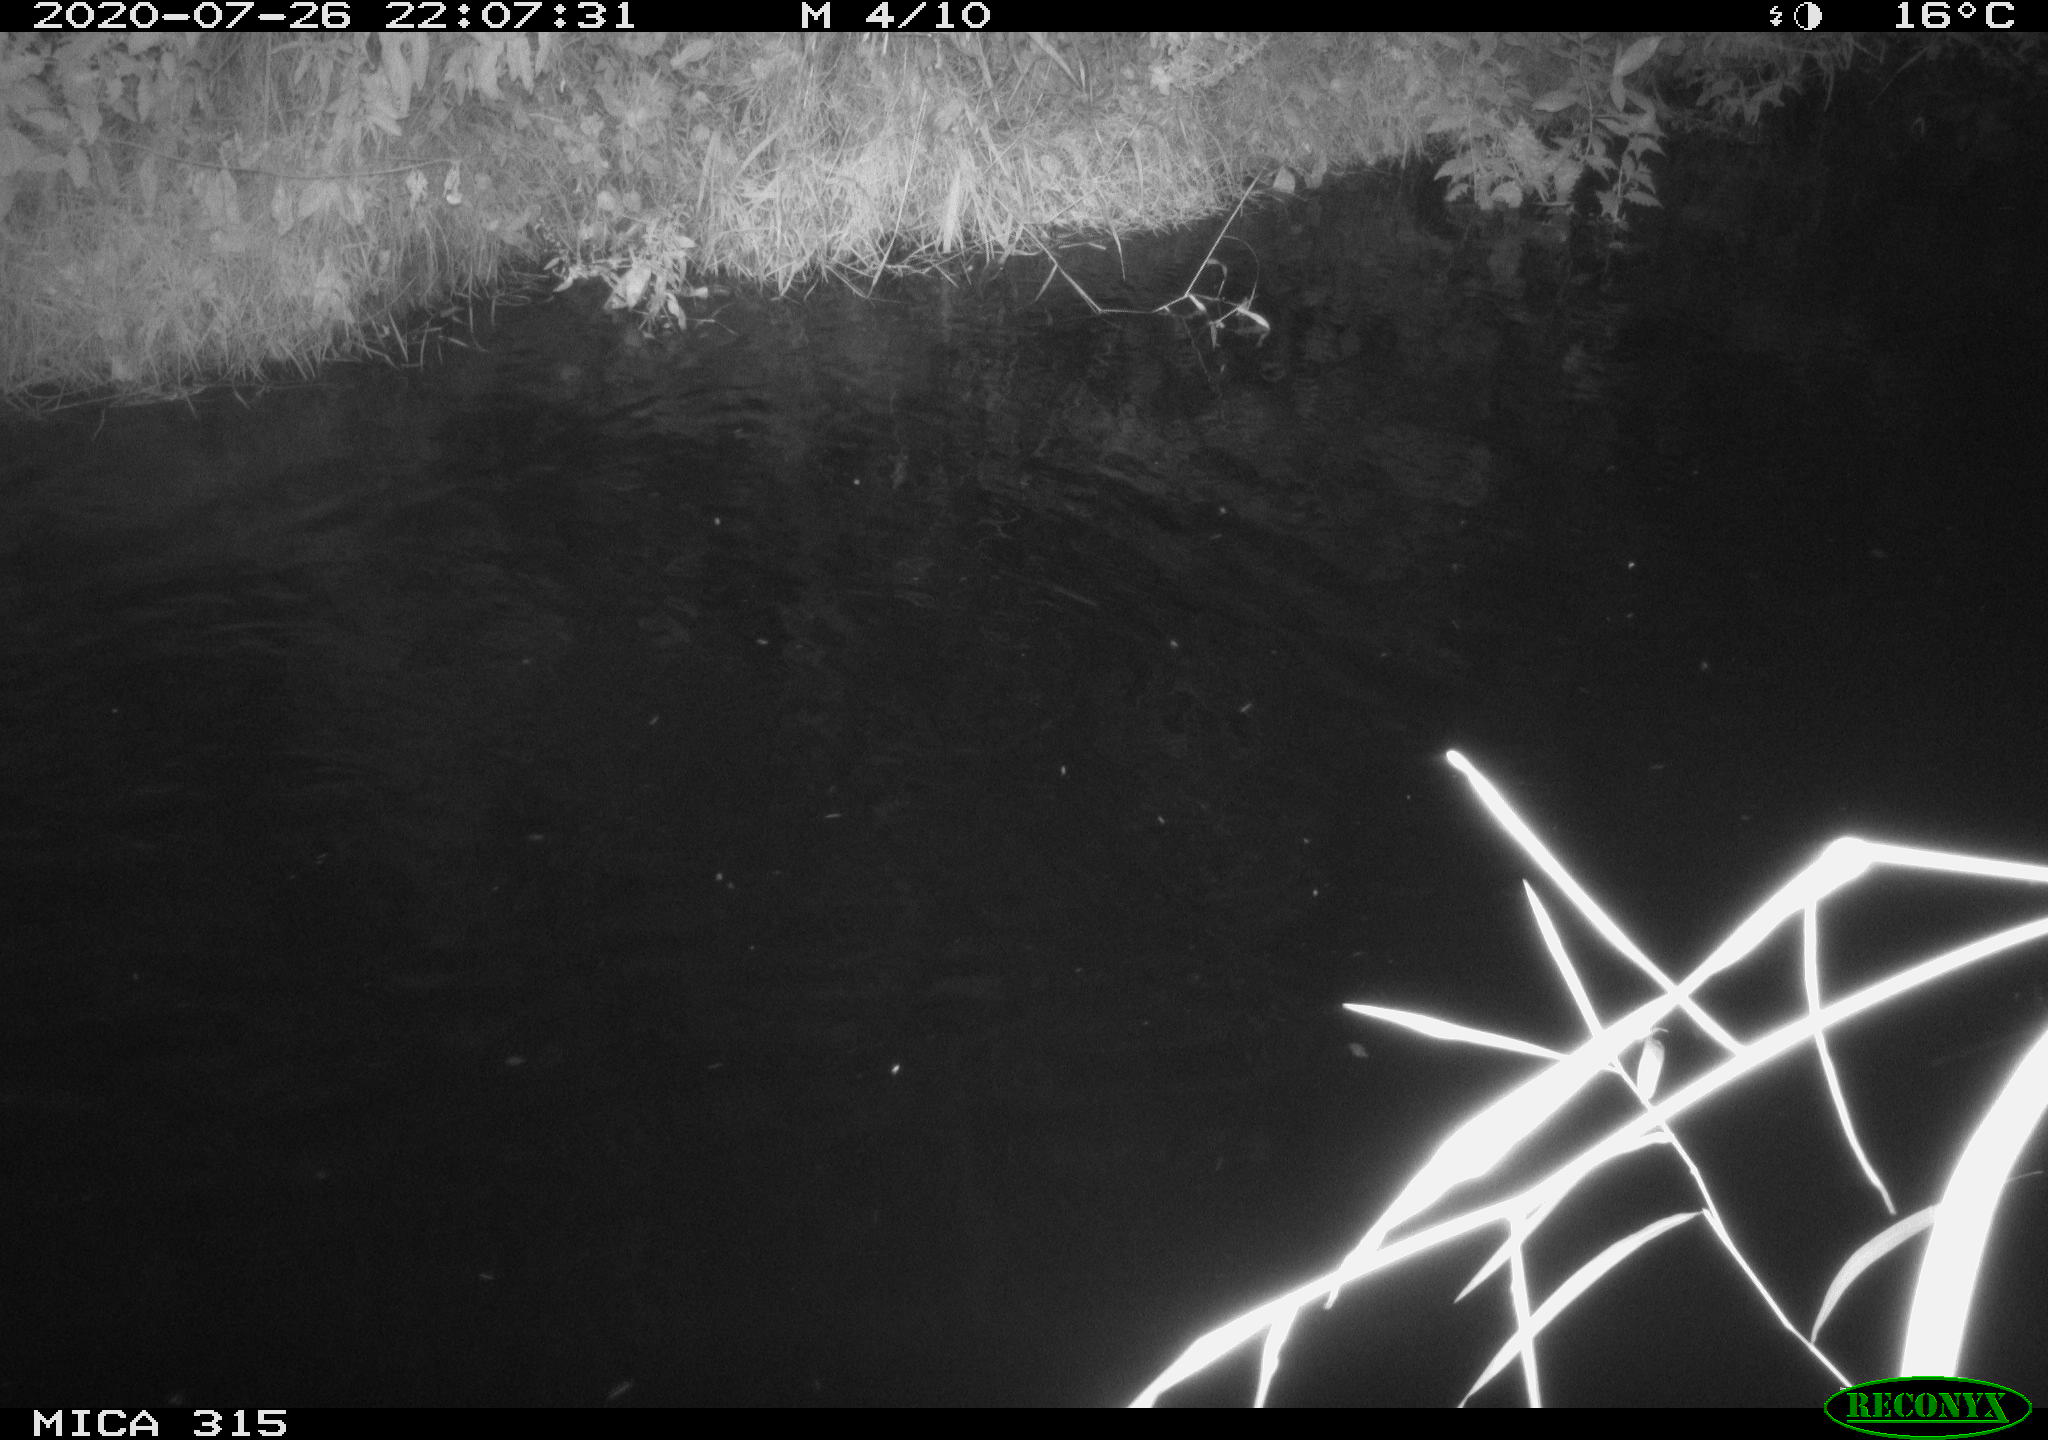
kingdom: Animalia
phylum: Chordata
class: Aves
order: Anseriformes
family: Anatidae
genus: Anas
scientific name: Anas platyrhynchos
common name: Mallard
